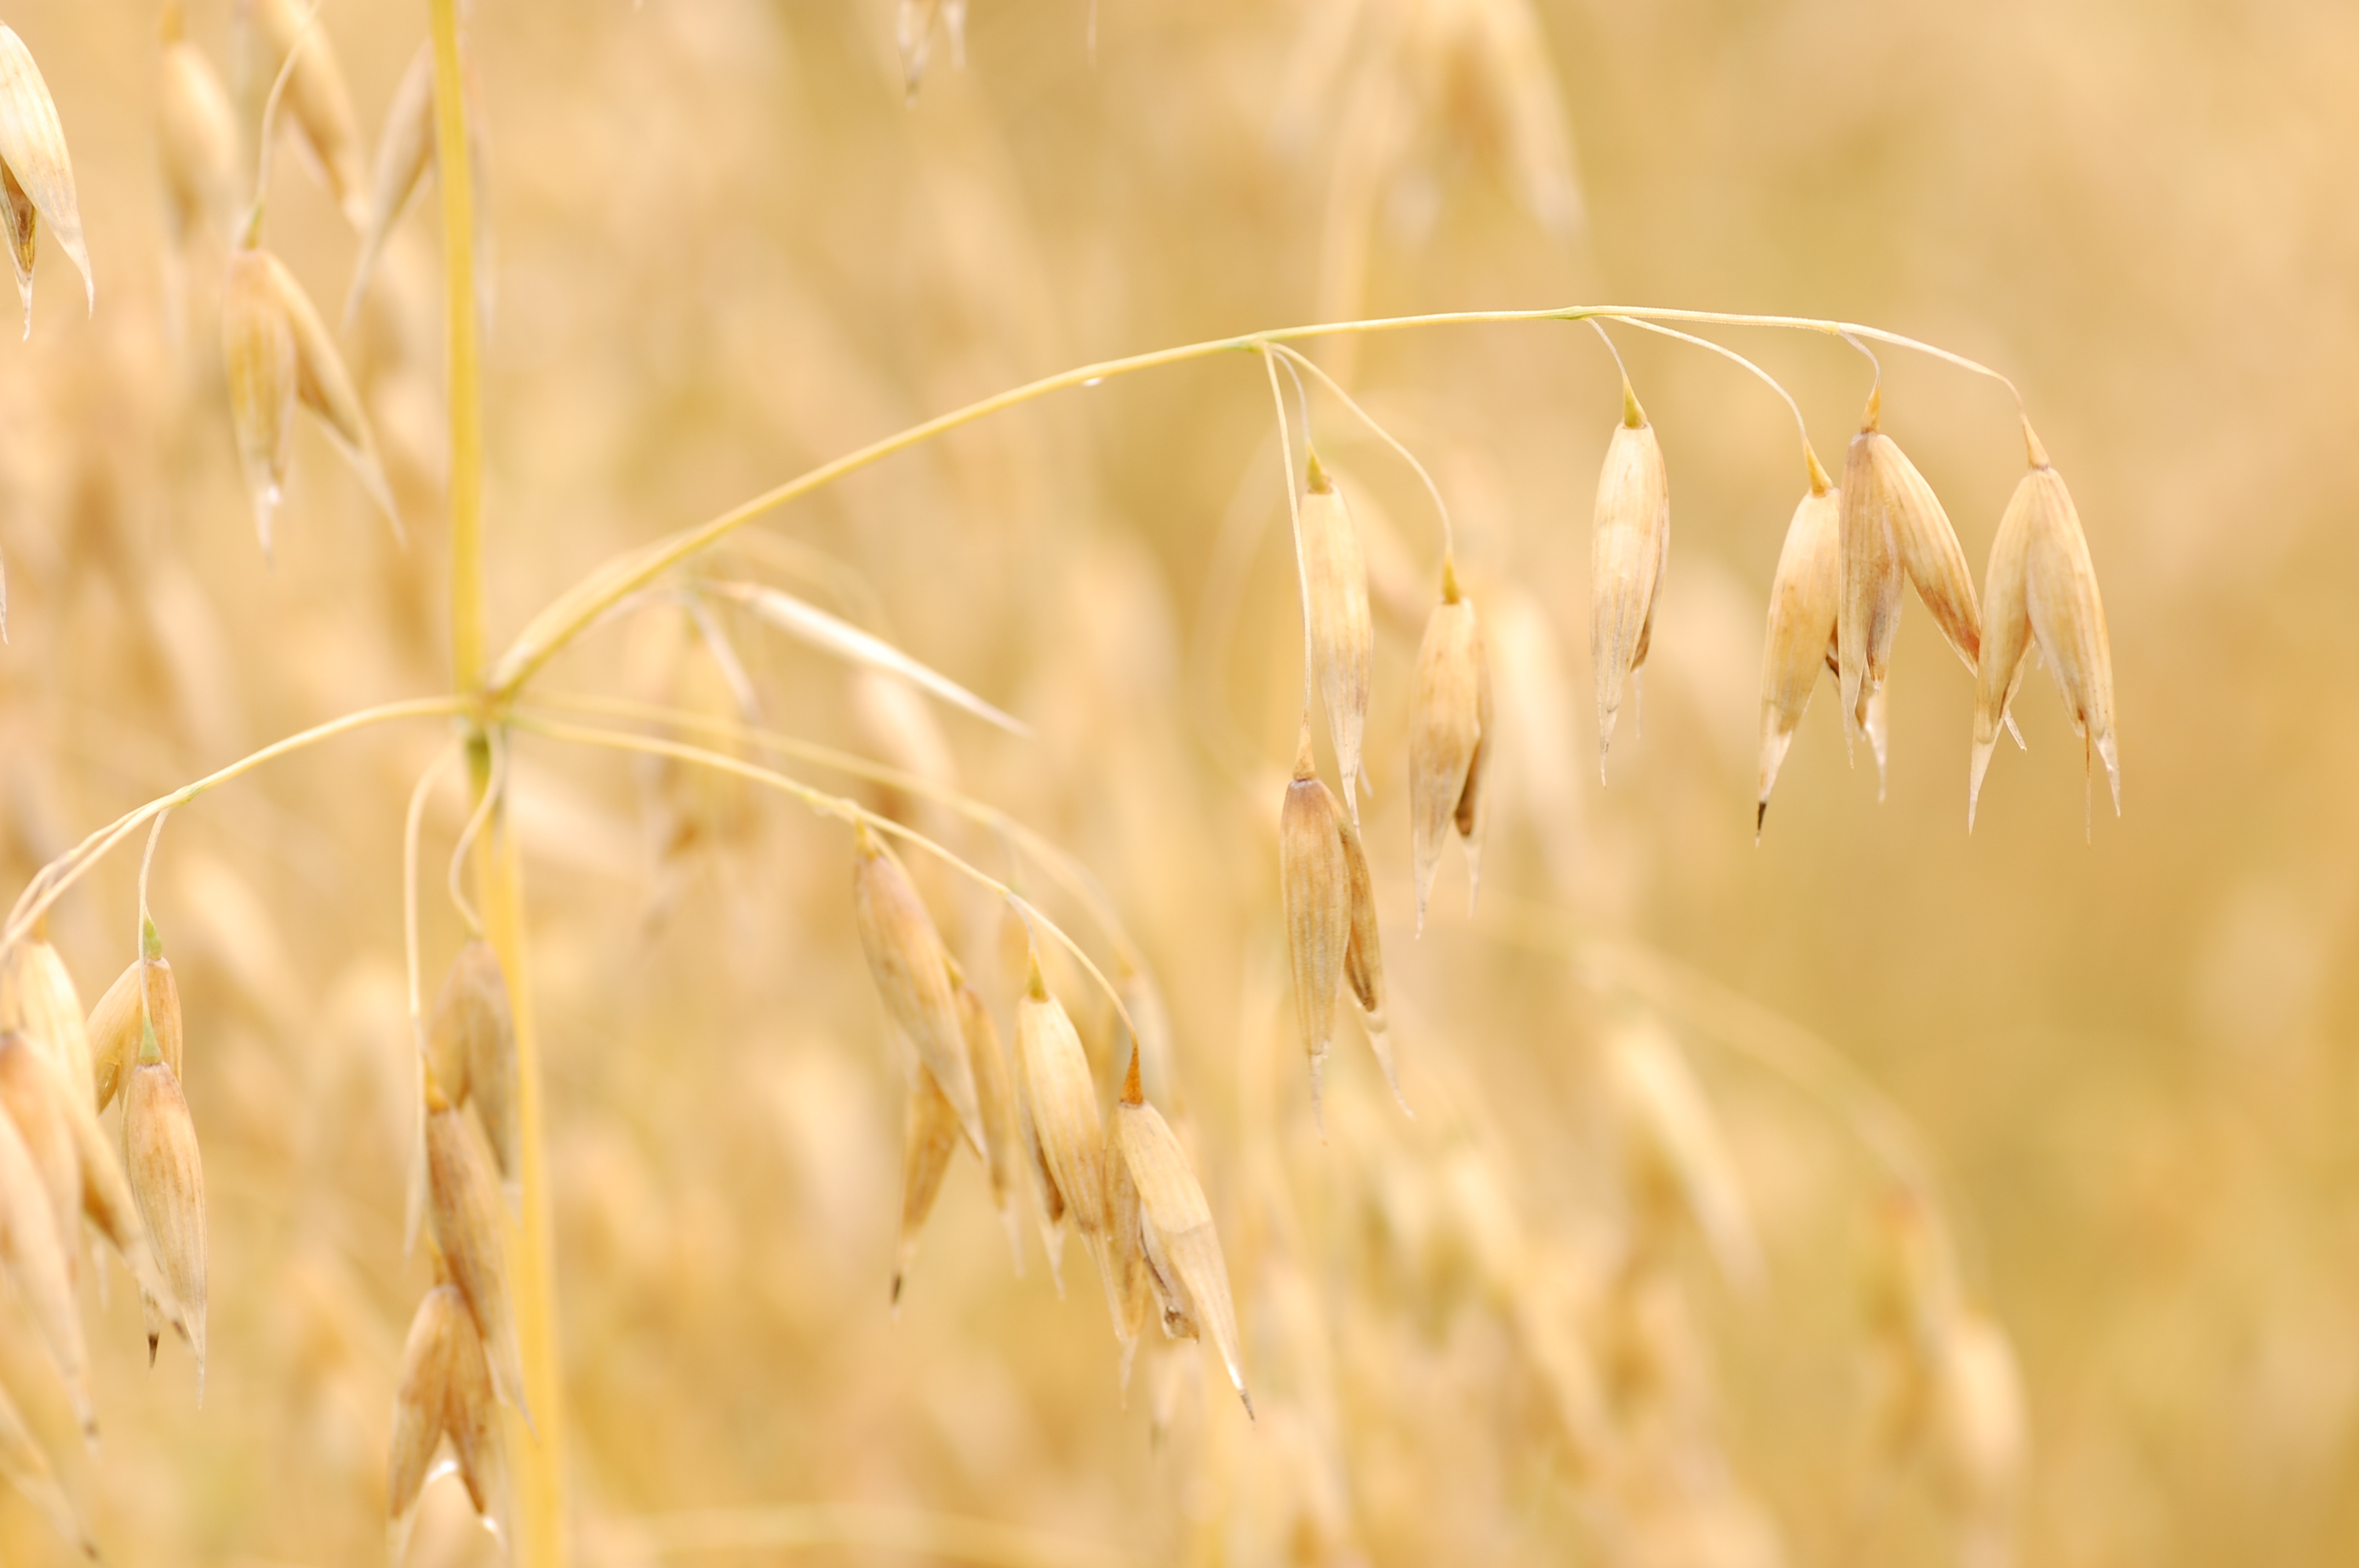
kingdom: Plantae
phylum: Tracheophyta
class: Liliopsida
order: Poales
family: Poaceae
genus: Avena
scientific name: Avena sativa
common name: Oat
